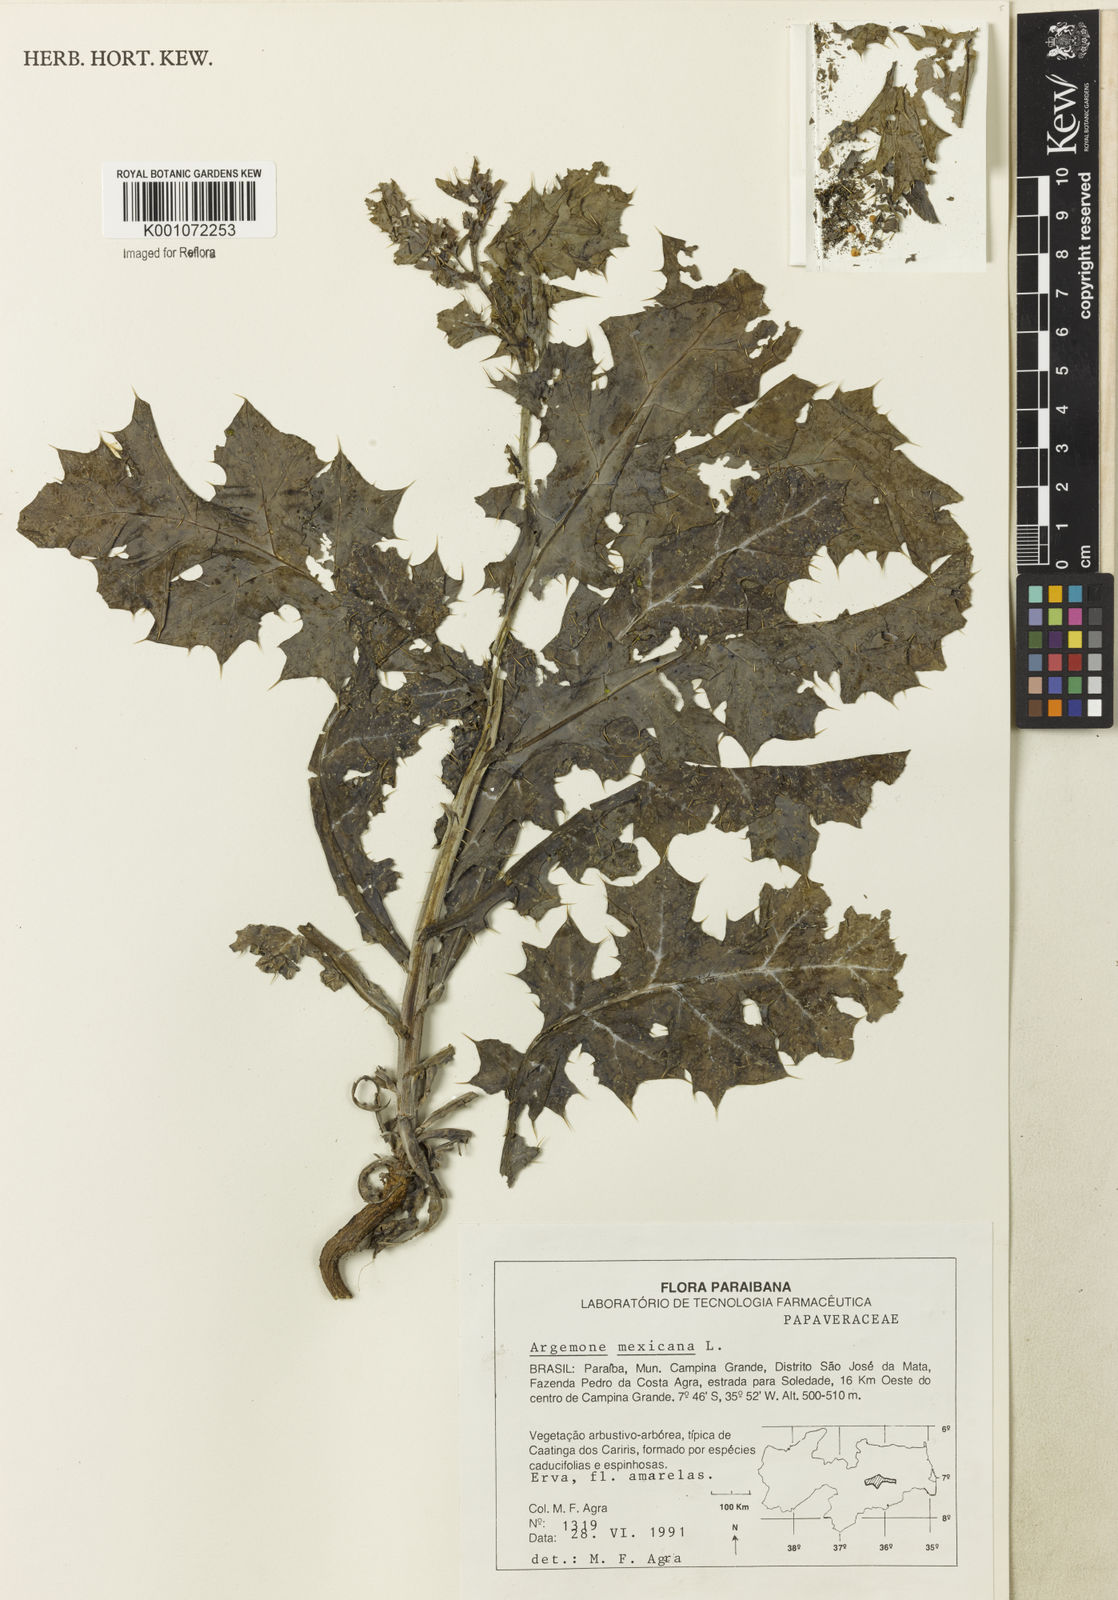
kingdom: Plantae
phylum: Tracheophyta
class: Magnoliopsida
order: Ranunculales
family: Papaveraceae
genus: Argemone
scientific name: Argemone mexicana
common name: Mexican poppy
